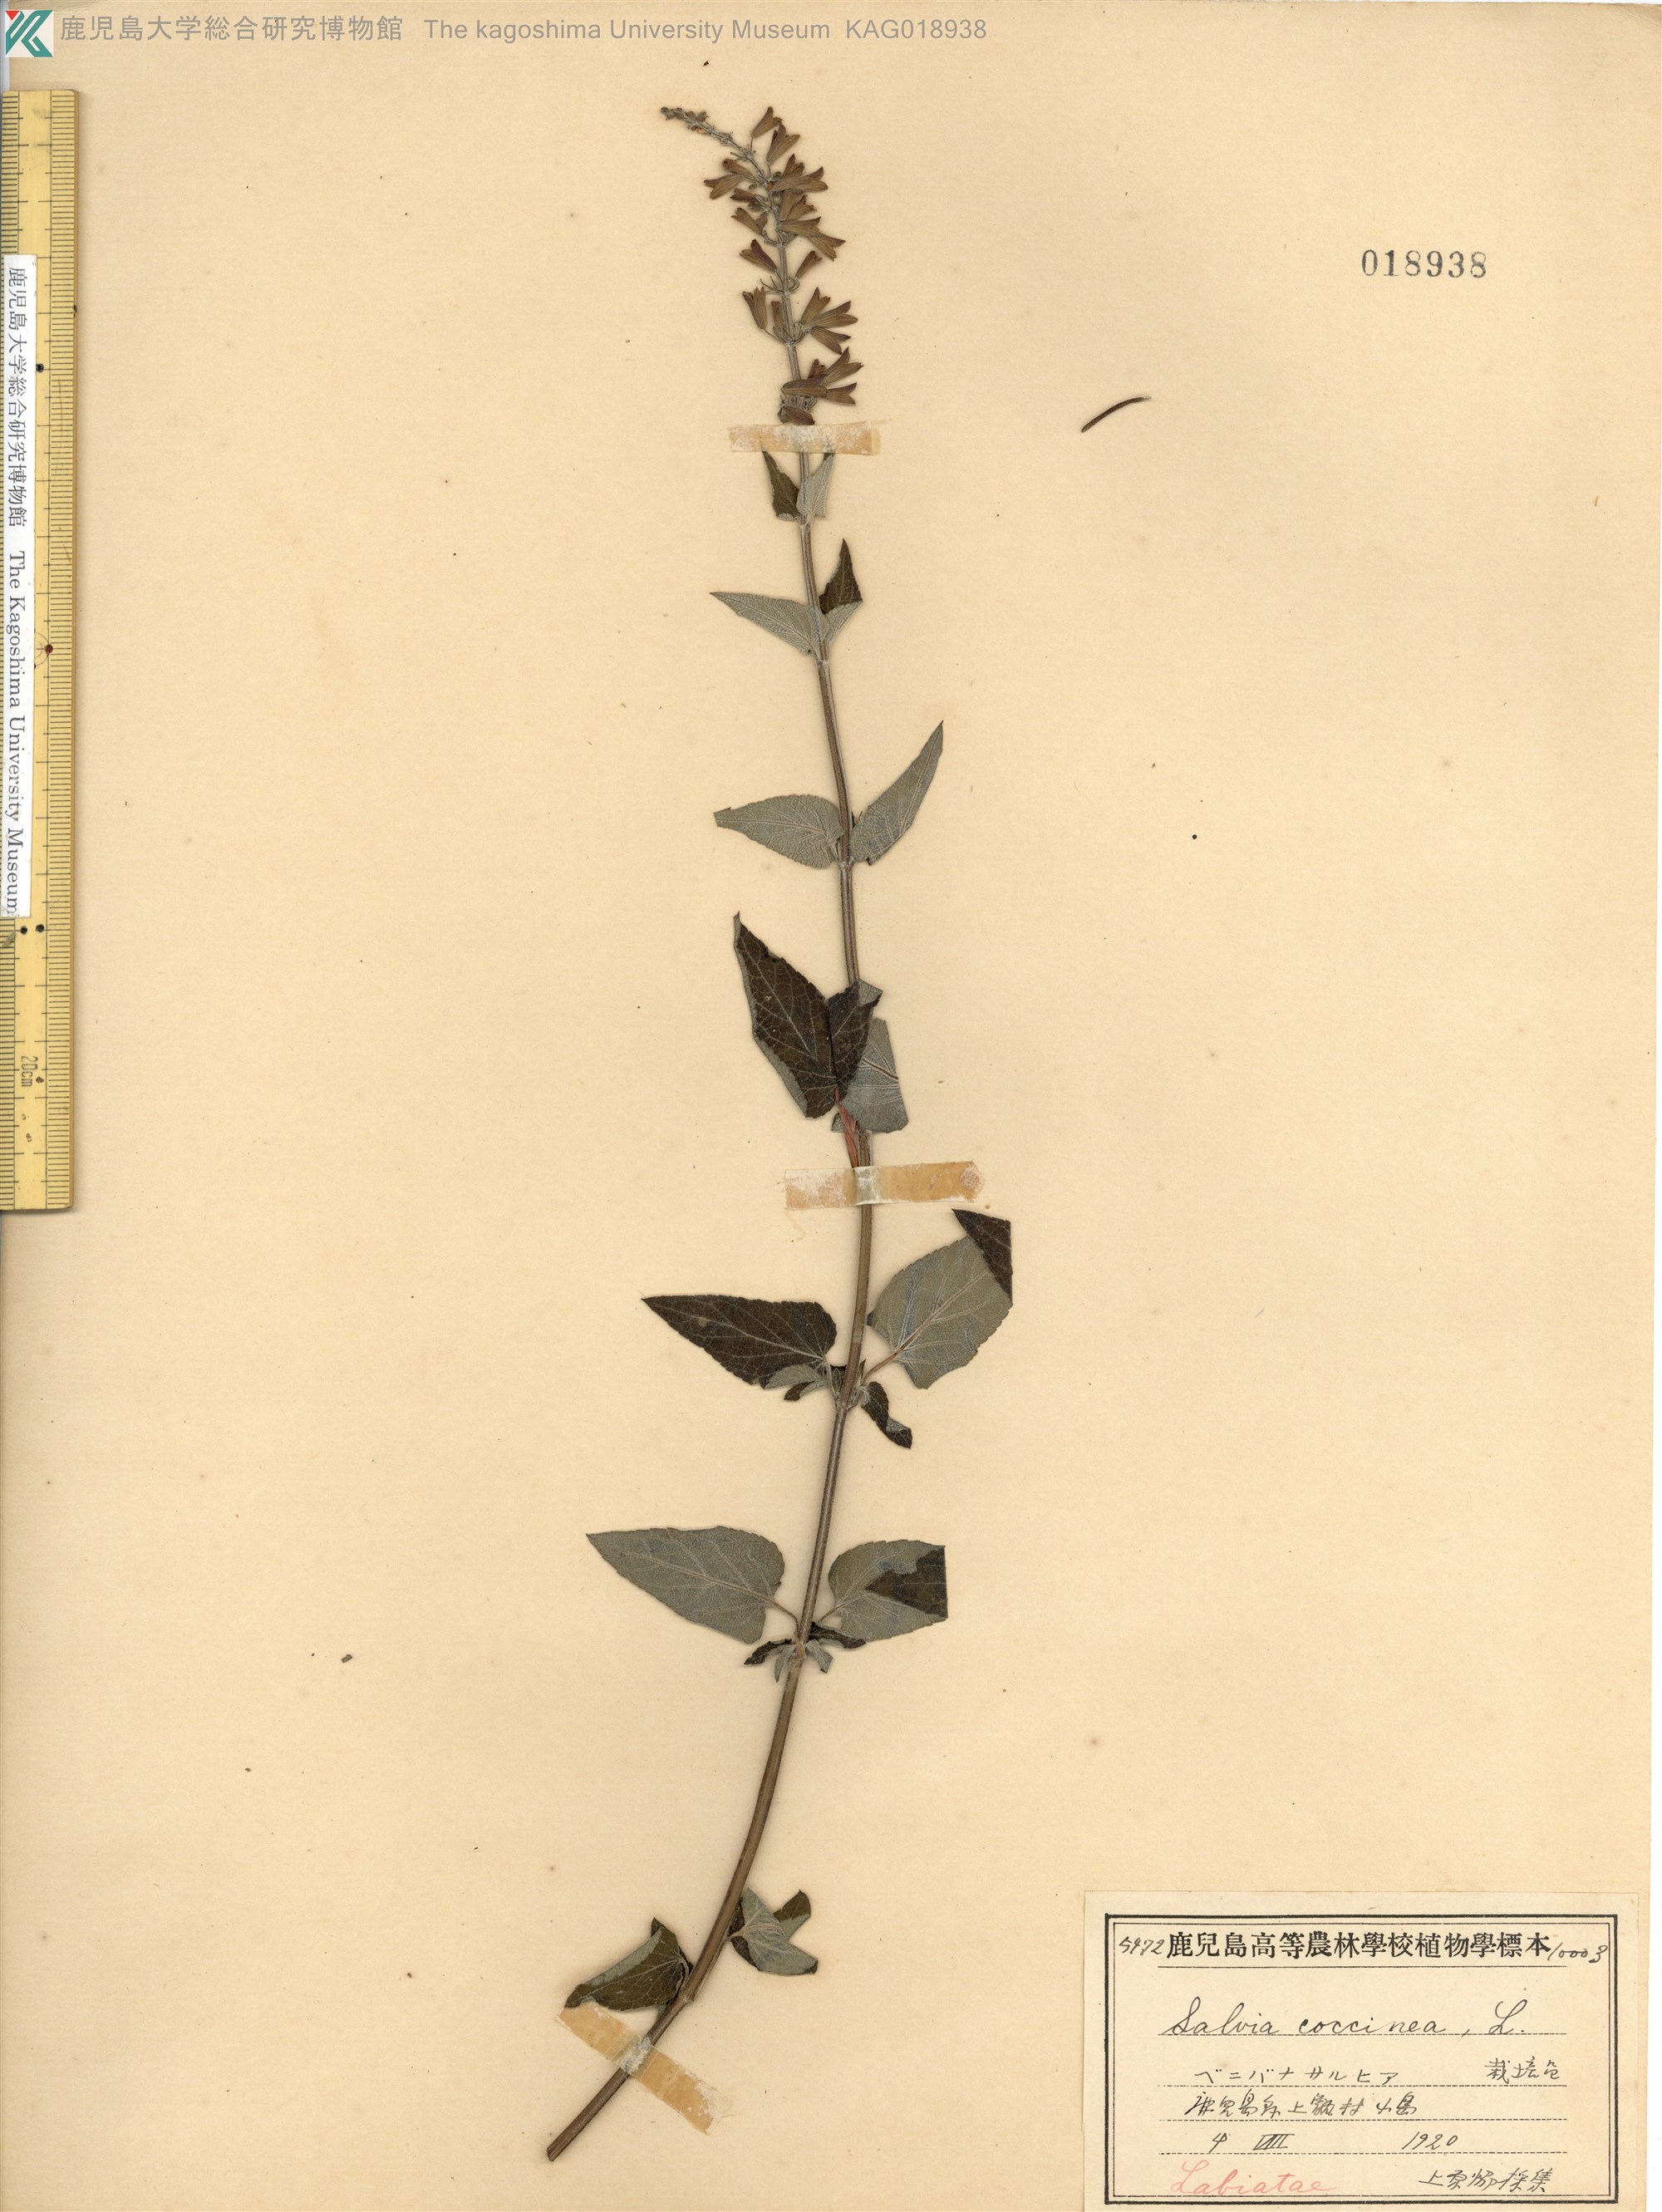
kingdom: Plantae
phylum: Tracheophyta
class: Magnoliopsida
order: Lamiales
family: Lamiaceae
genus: Salvia
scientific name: Salvia coccinea
